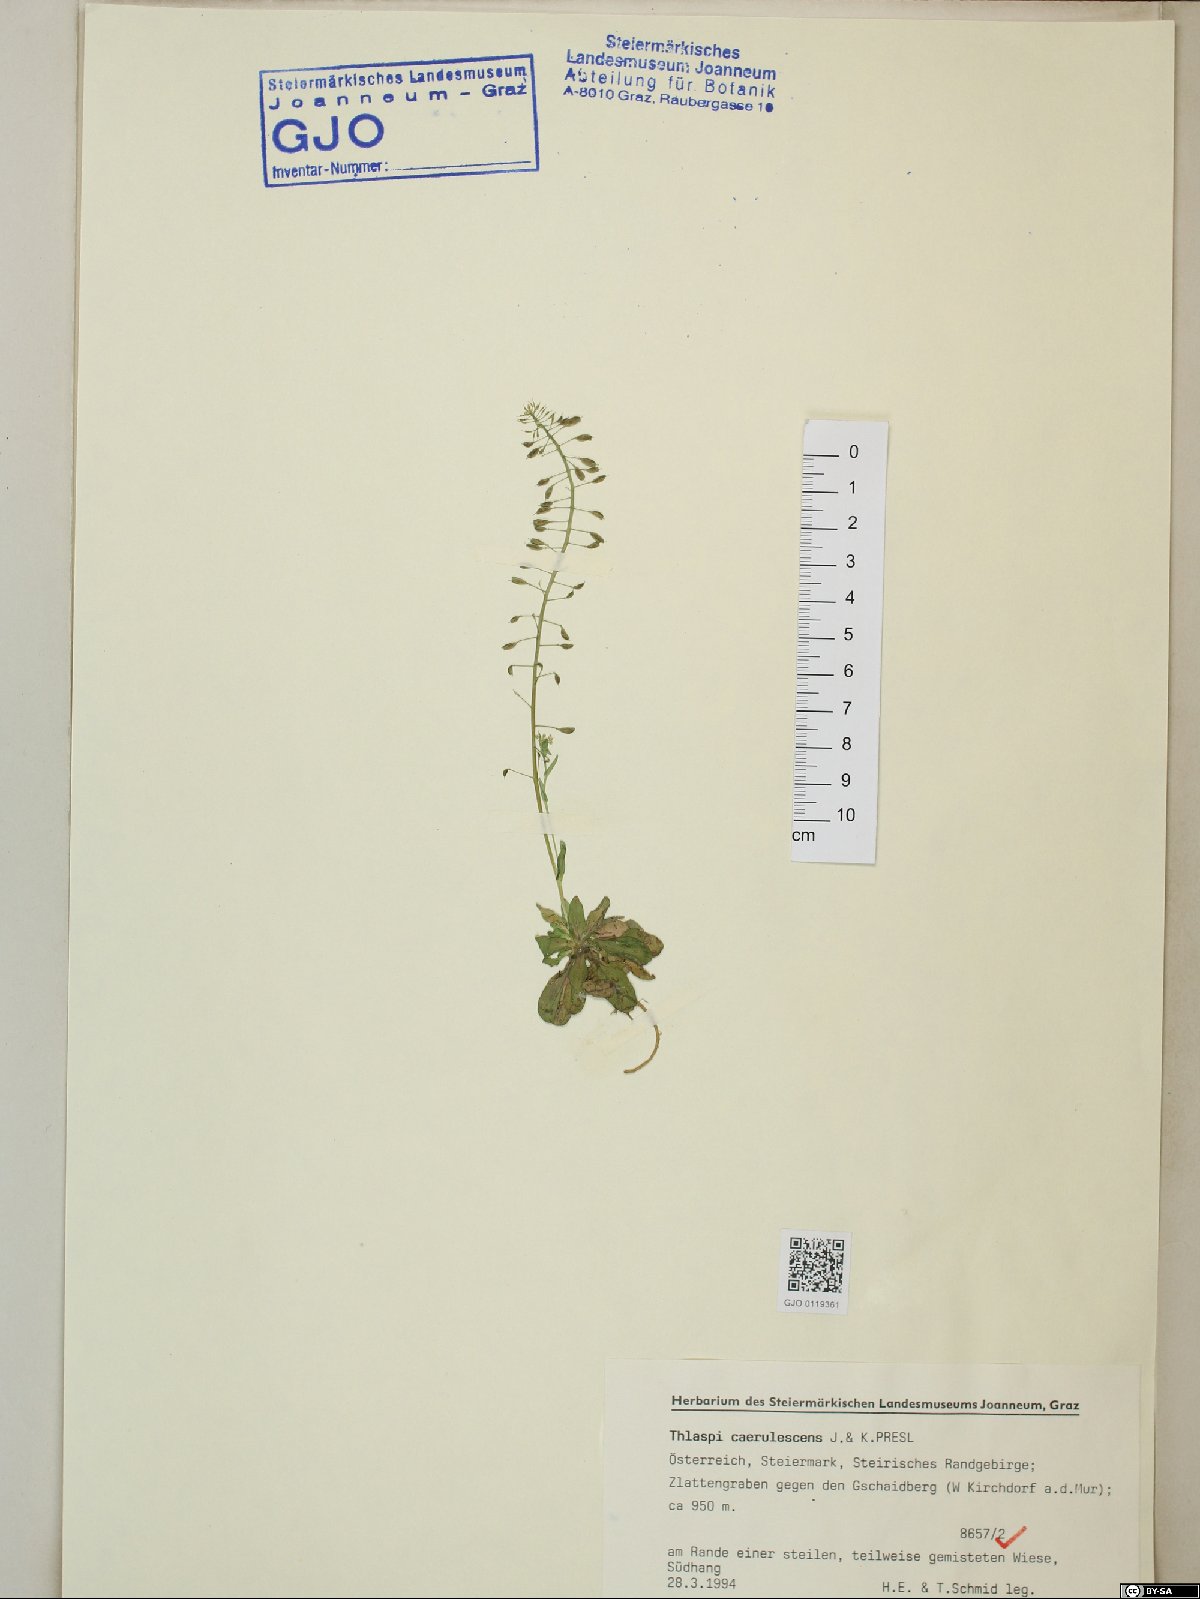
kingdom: Plantae
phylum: Tracheophyta
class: Magnoliopsida
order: Brassicales
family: Brassicaceae
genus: Noccaea
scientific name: Noccaea caerulescens
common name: Alpine pennycress
